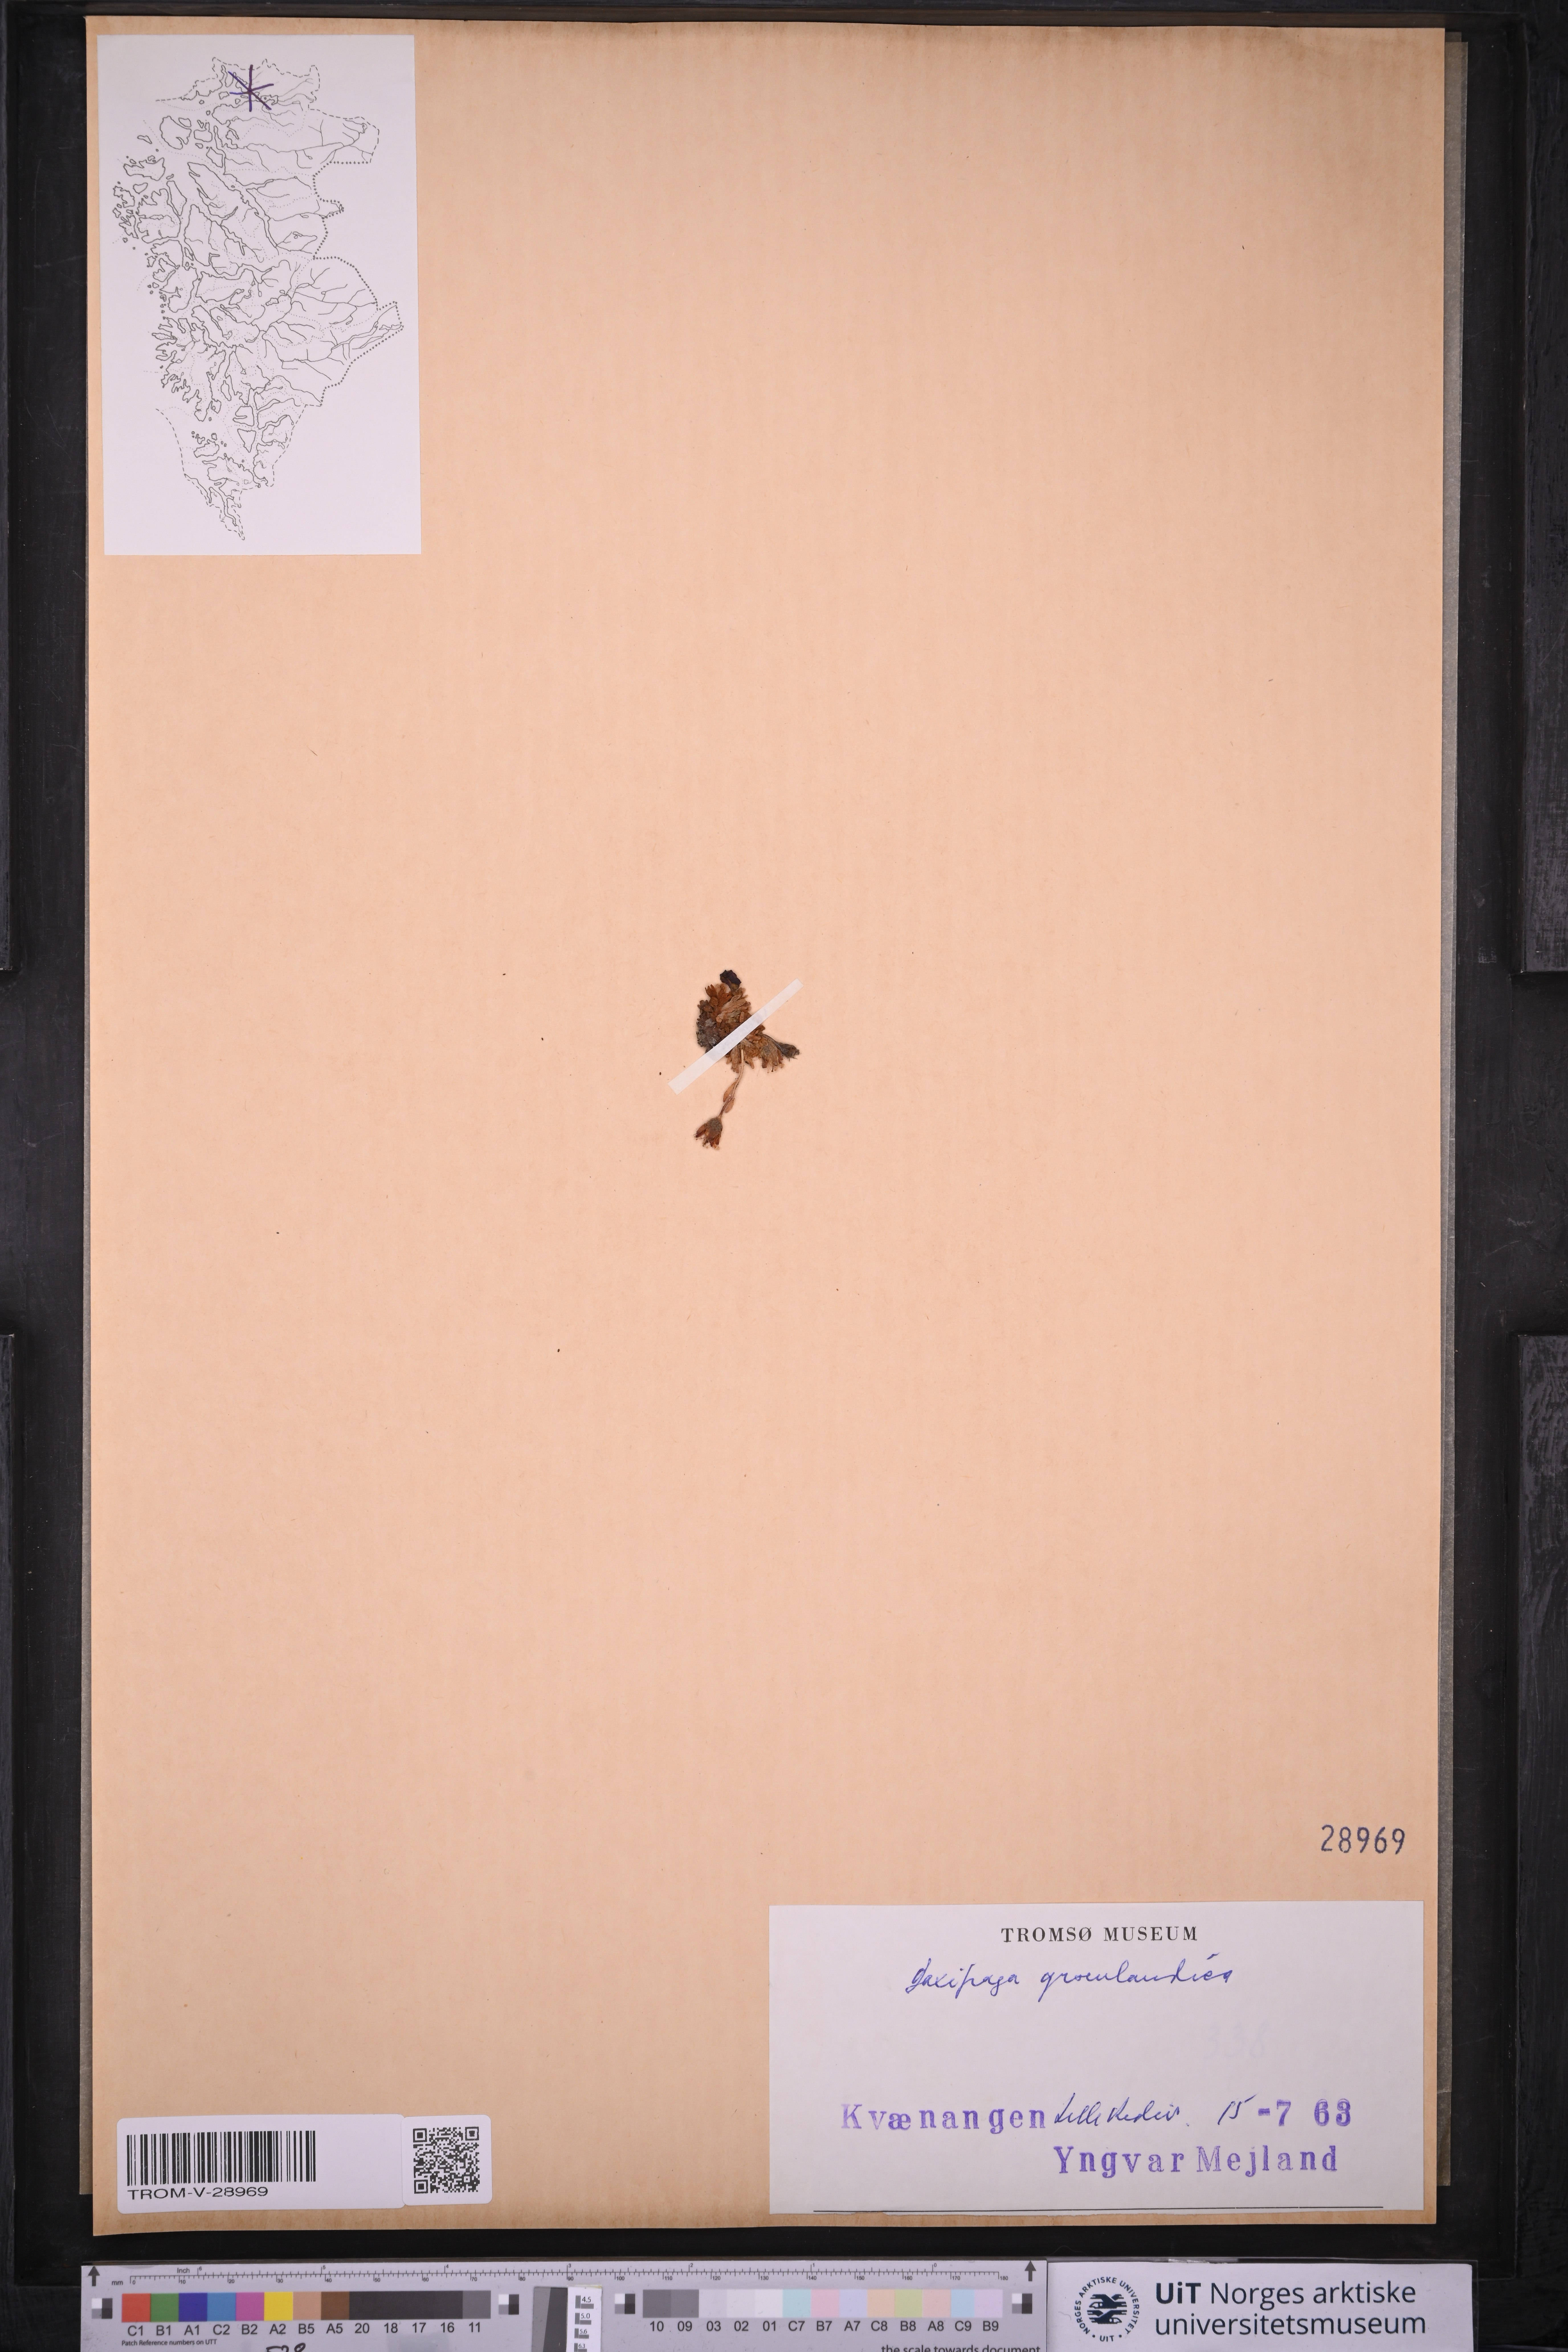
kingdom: Plantae
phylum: Tracheophyta
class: Magnoliopsida
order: Saxifragales
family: Saxifragaceae
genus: Saxifraga
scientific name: Saxifraga cespitosa
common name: Tufted saxifrage
